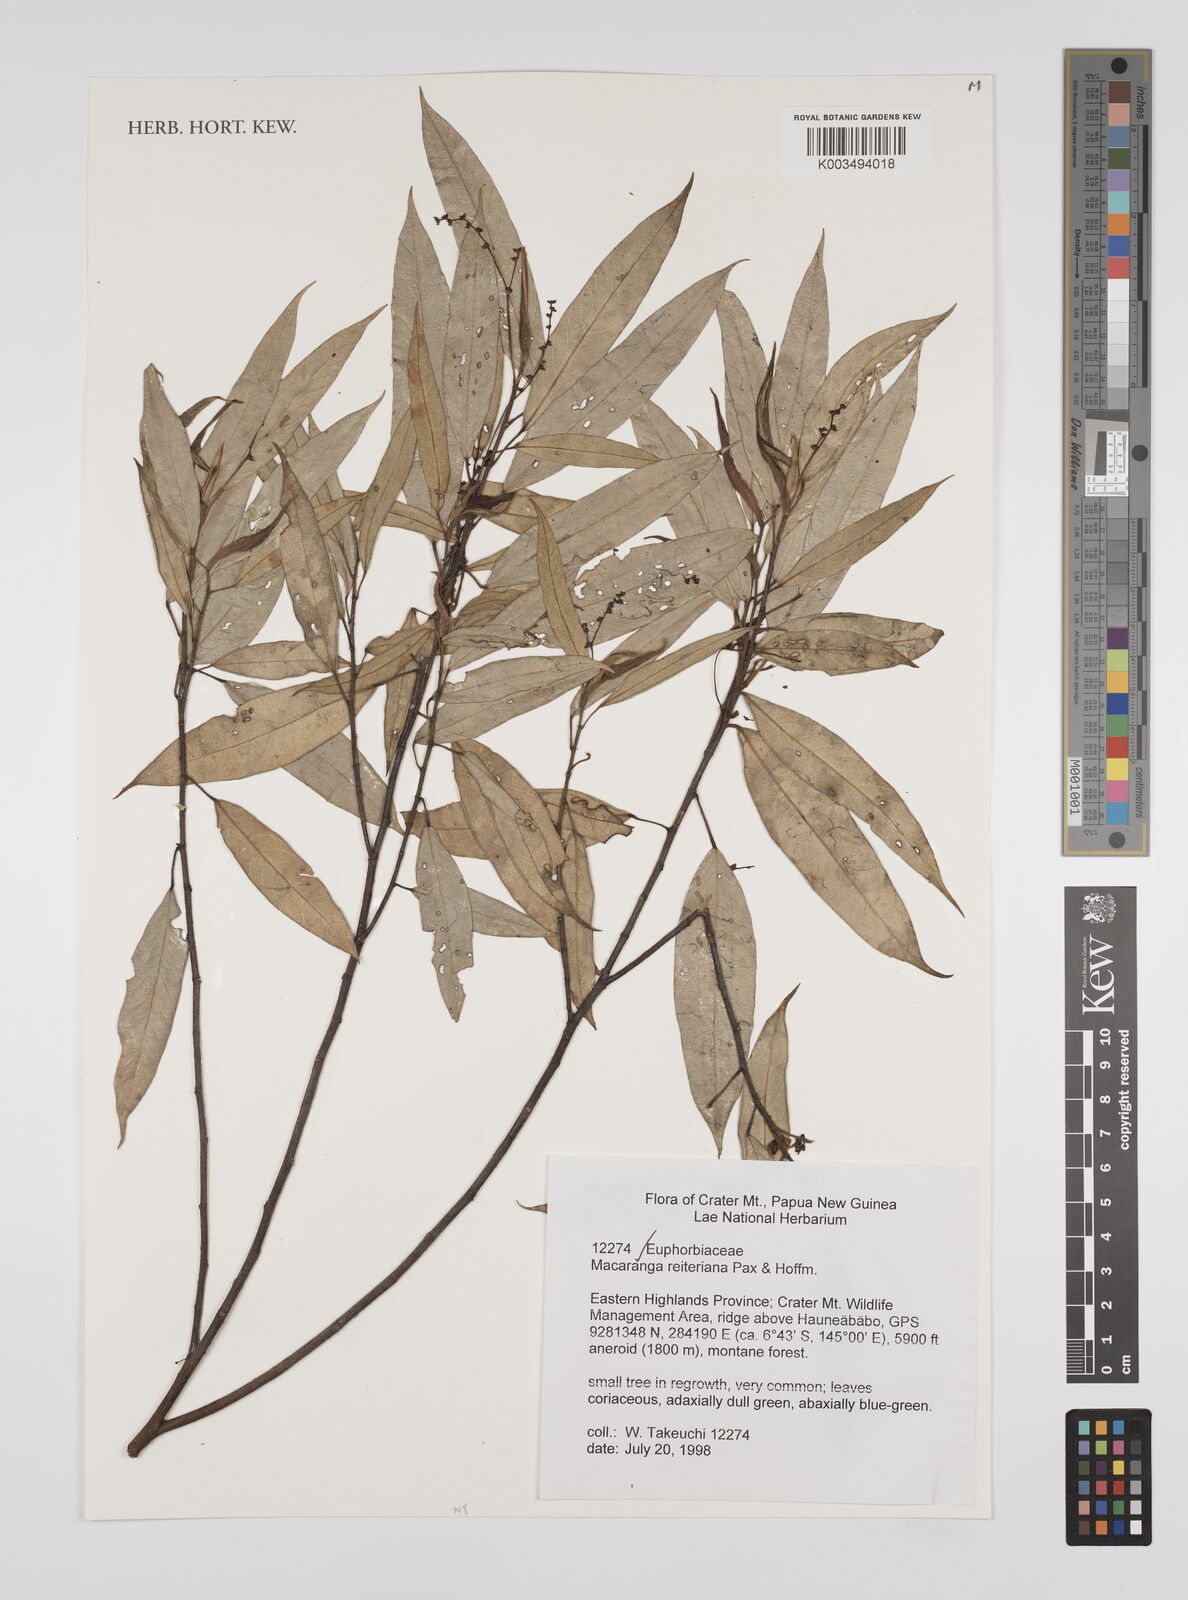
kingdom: Plantae
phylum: Tracheophyta
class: Magnoliopsida
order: Malpighiales
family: Euphorbiaceae
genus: Macaranga
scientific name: Macaranga reiteriana
